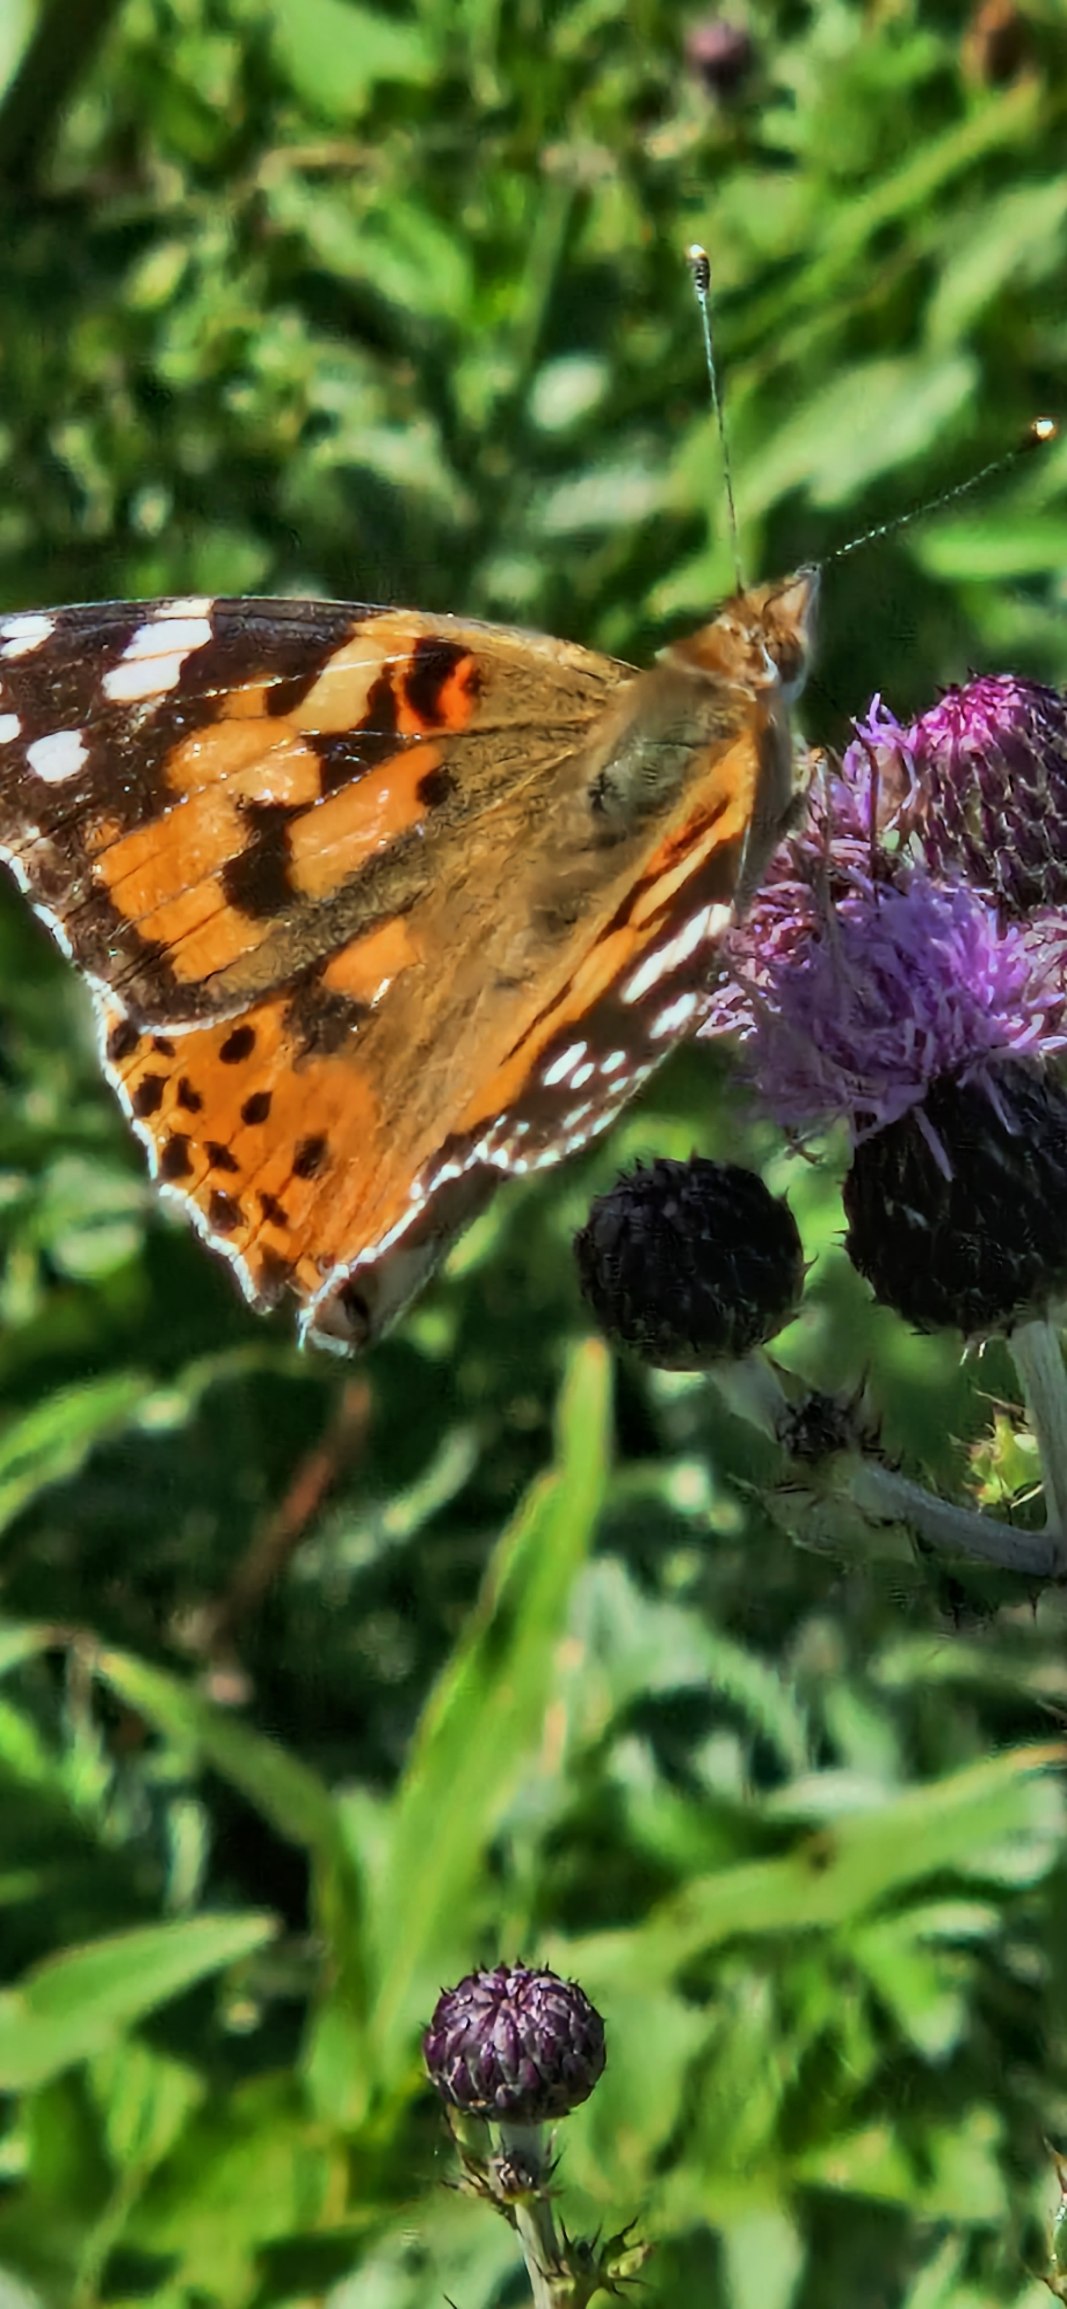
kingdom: Animalia
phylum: Arthropoda
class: Insecta
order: Lepidoptera
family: Nymphalidae
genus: Vanessa
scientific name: Vanessa cardui
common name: Tidselsommerfugl
